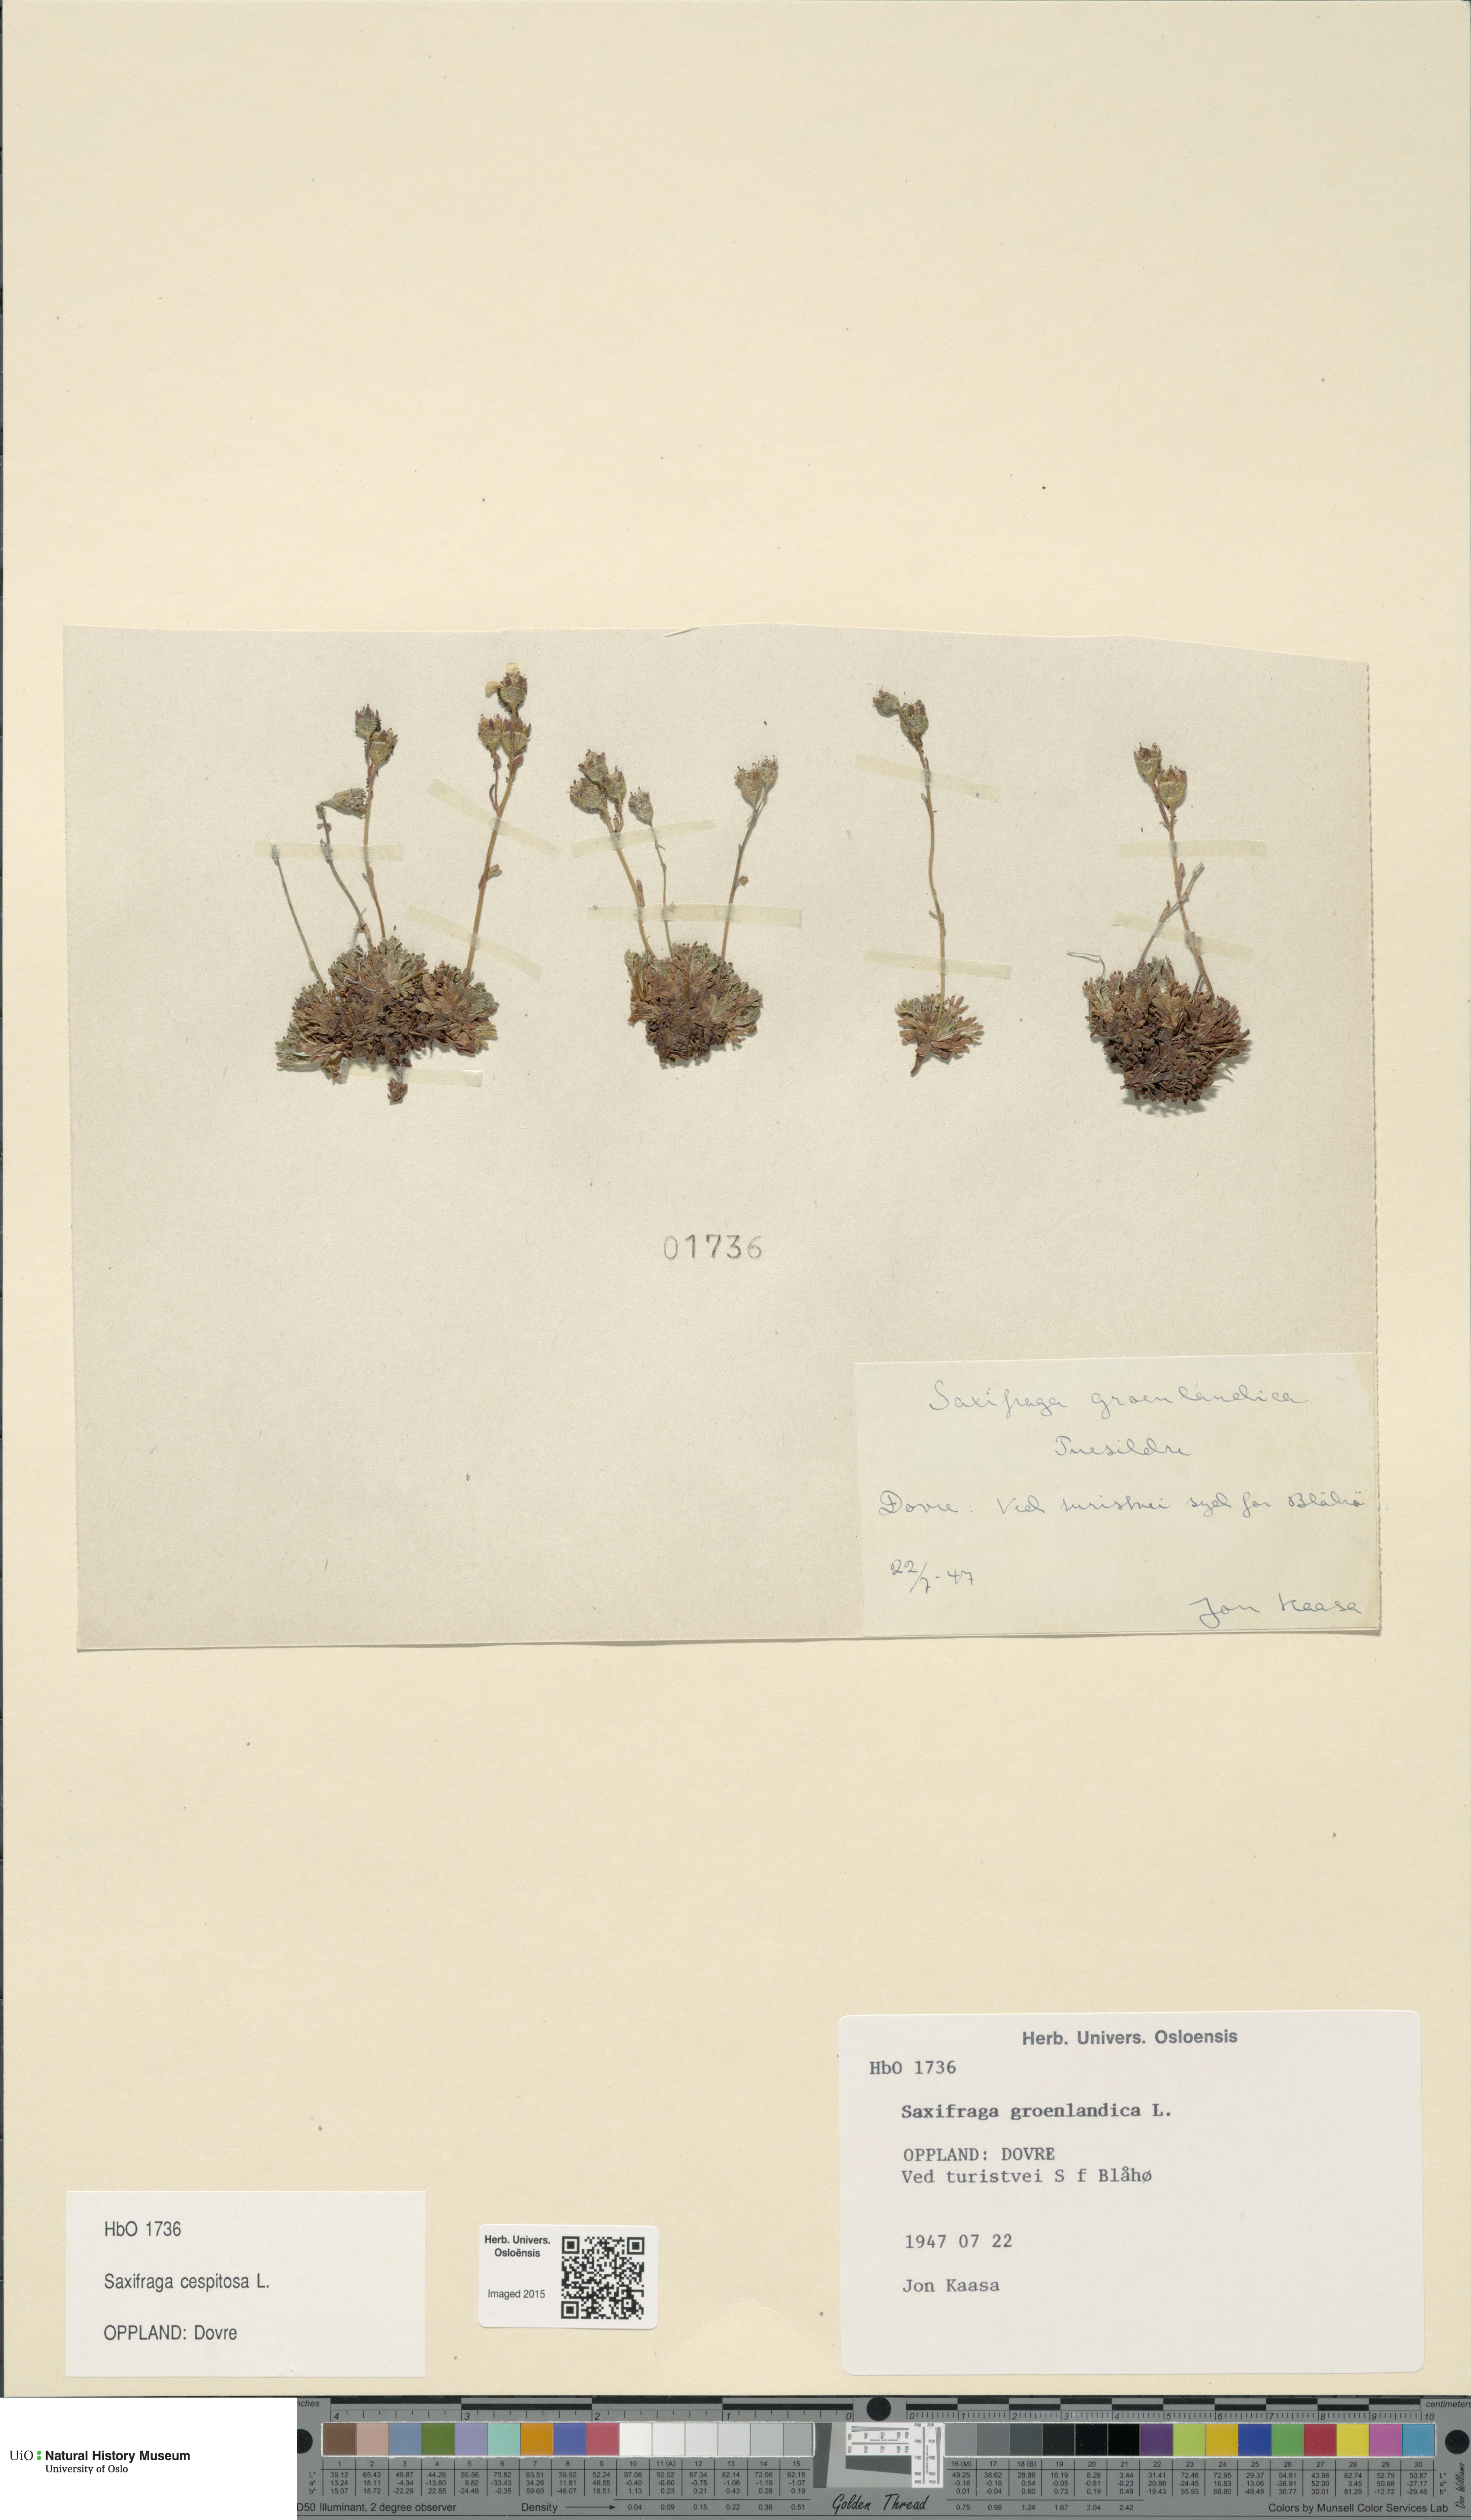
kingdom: Plantae
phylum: Tracheophyta
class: Magnoliopsida
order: Saxifragales
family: Saxifragaceae
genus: Saxifraga
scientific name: Saxifraga cespitosa
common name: Tufted saxifrage
